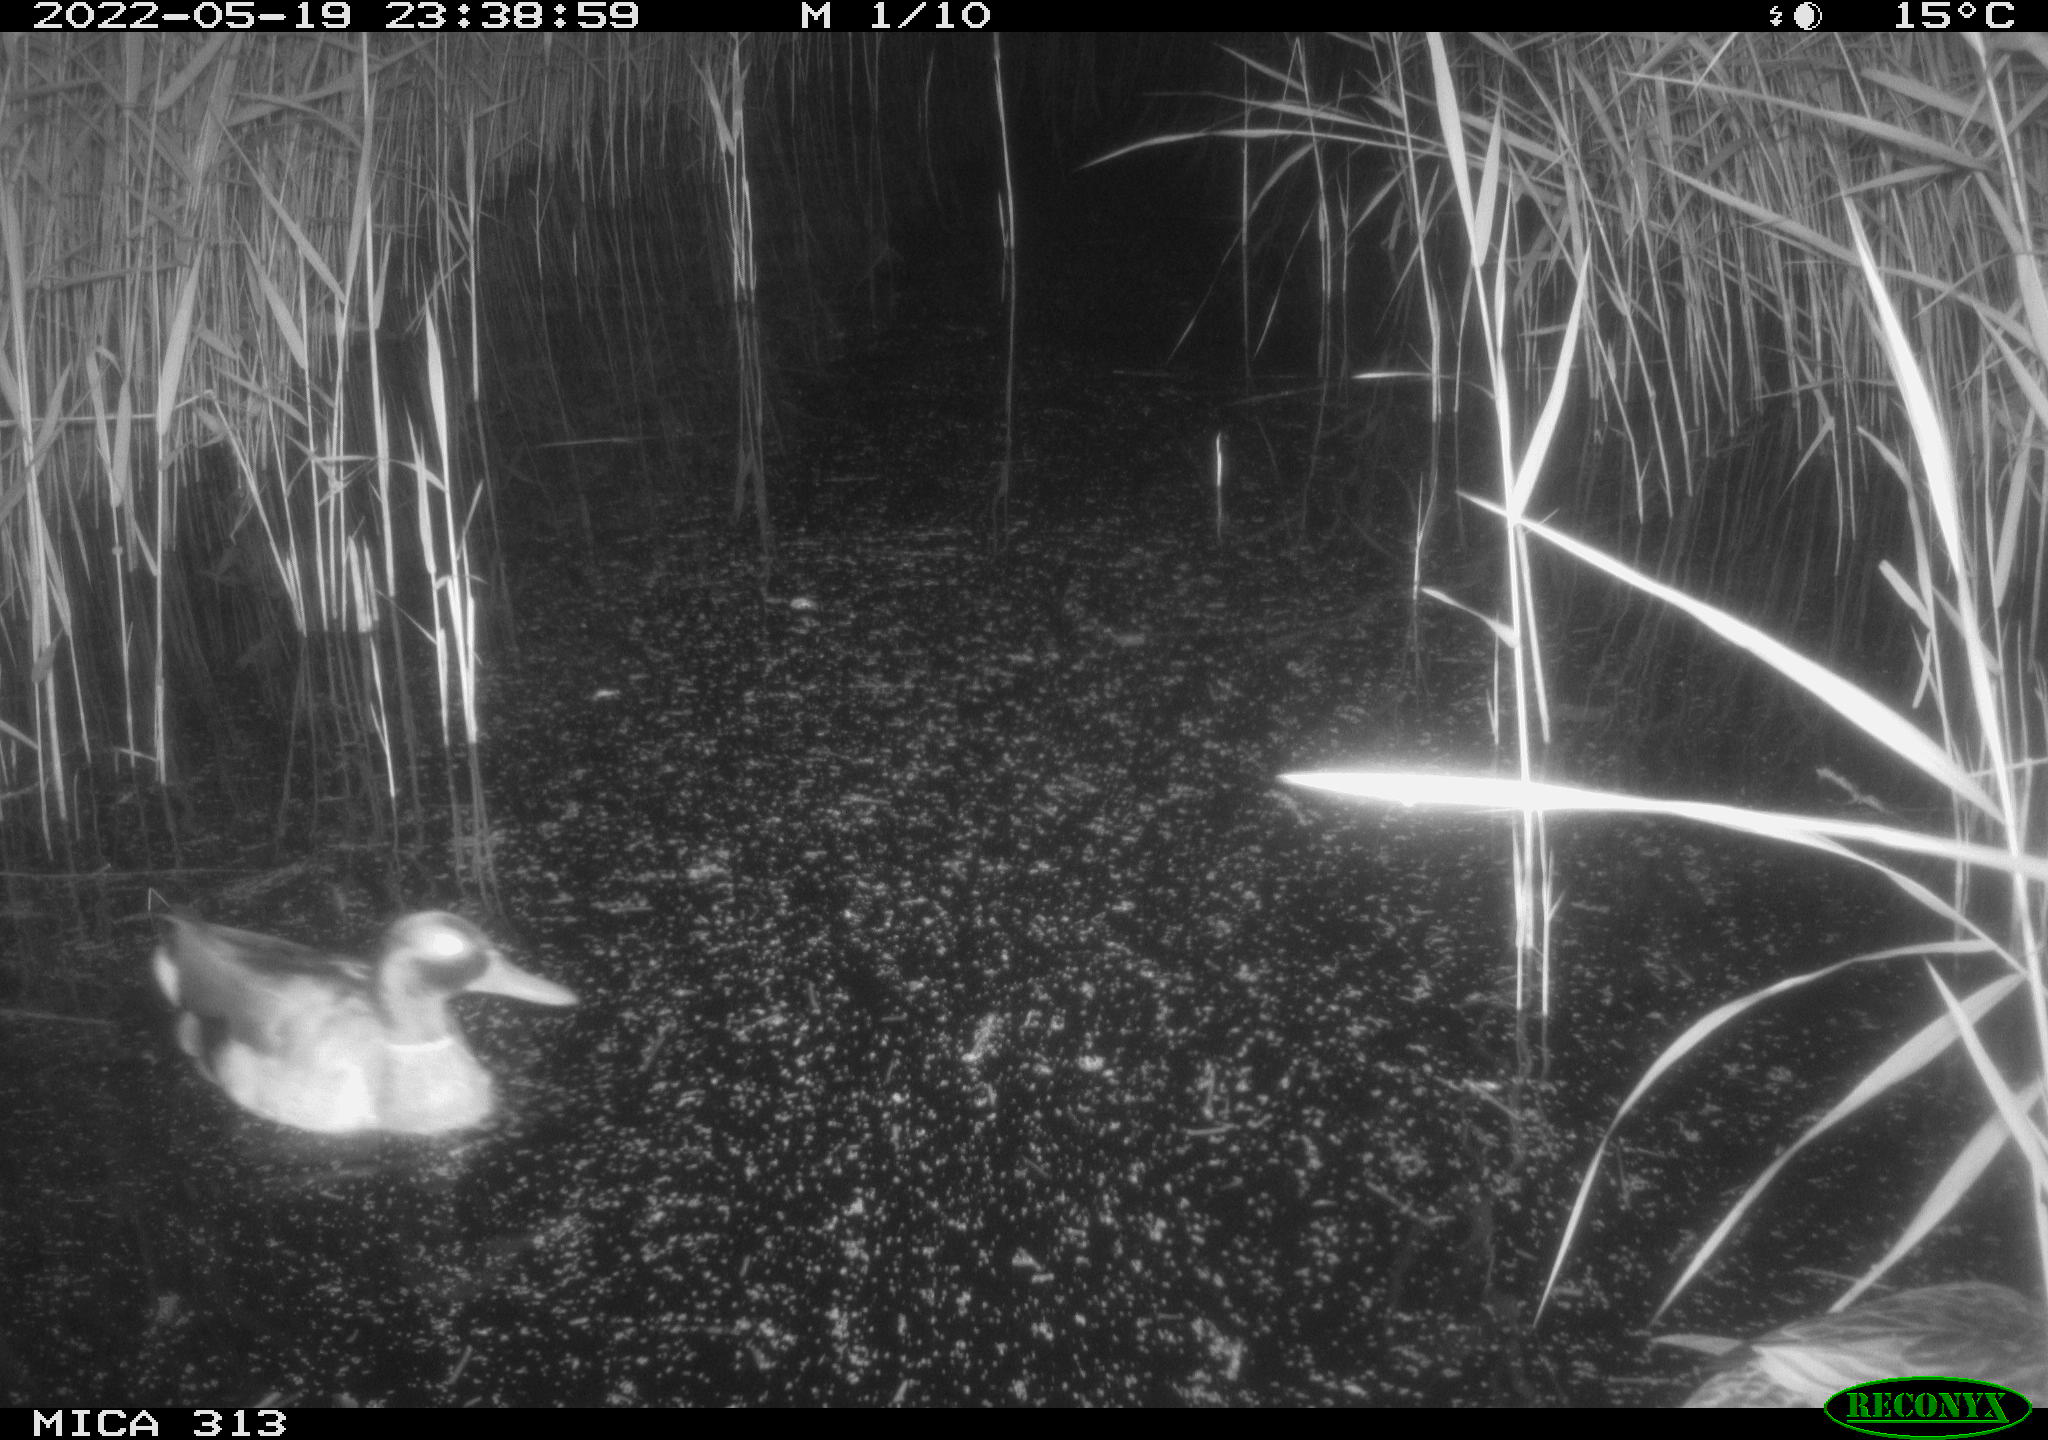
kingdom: Animalia
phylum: Chordata
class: Aves
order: Anseriformes
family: Anatidae
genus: Anas
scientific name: Anas platyrhynchos
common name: Mallard
